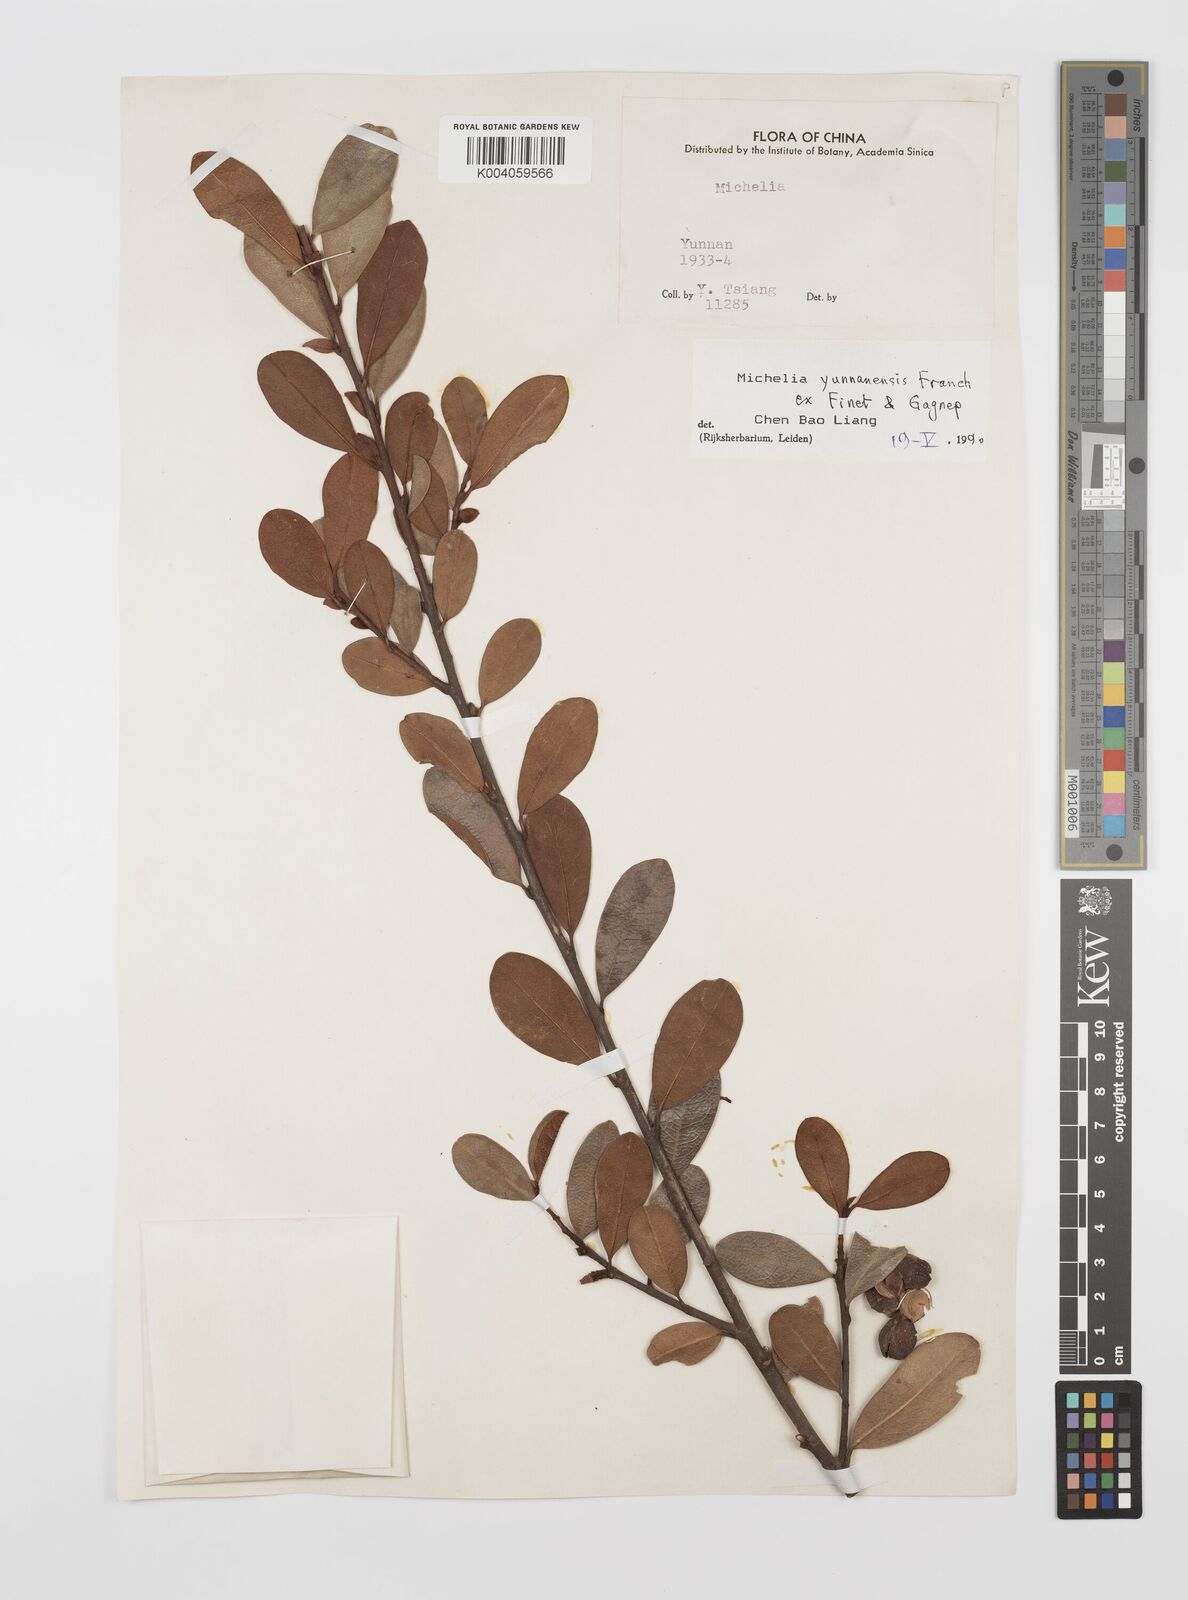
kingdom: Plantae
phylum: Tracheophyta
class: Magnoliopsida
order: Magnoliales
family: Magnoliaceae
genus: Magnolia
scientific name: Magnolia laevifolia
